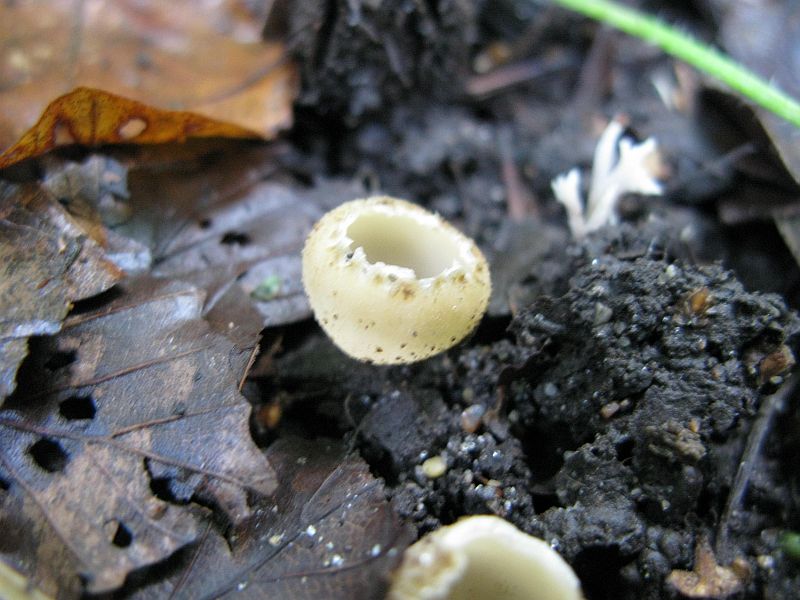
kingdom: Fungi
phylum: Ascomycota
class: Pezizomycetes
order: Pezizales
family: Pyronemataceae
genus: Tarzetta
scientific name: Tarzetta cupularis
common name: gulbrun pokalbæger
